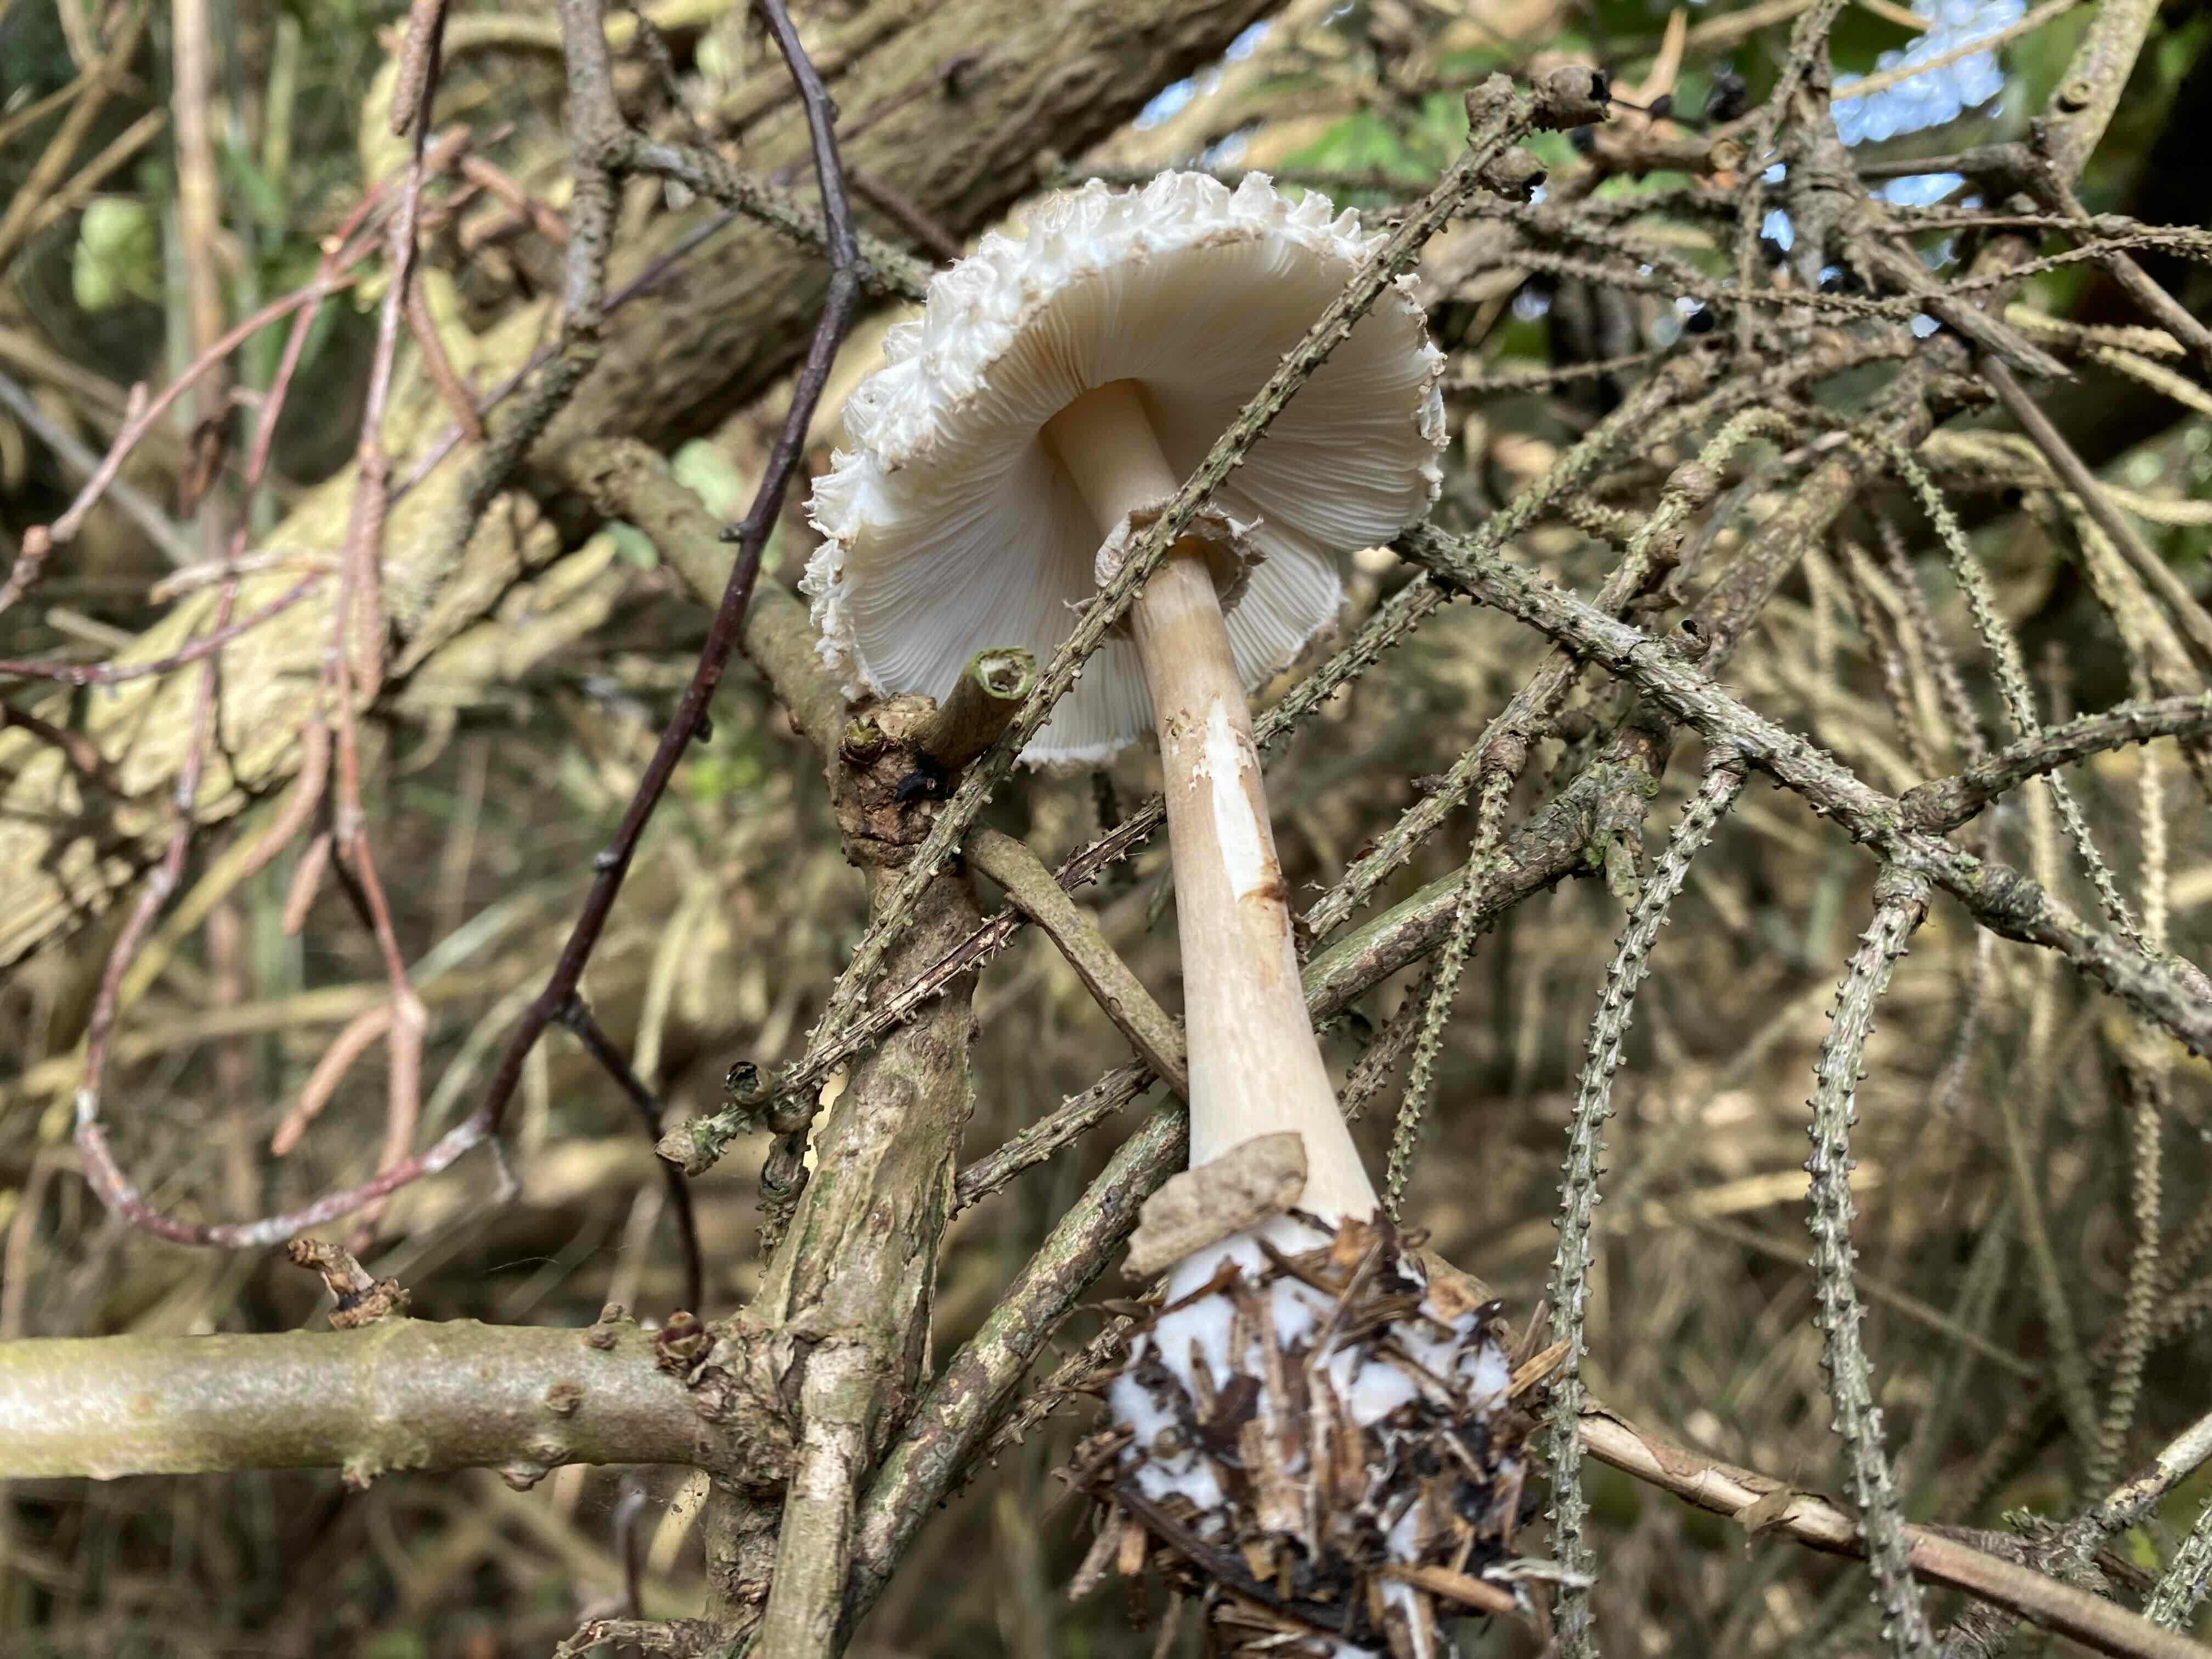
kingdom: Fungi
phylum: Basidiomycota
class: Agaricomycetes
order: Agaricales
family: Agaricaceae
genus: Leucoagaricus
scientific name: Leucoagaricus nympharum
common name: gran-silkehat
